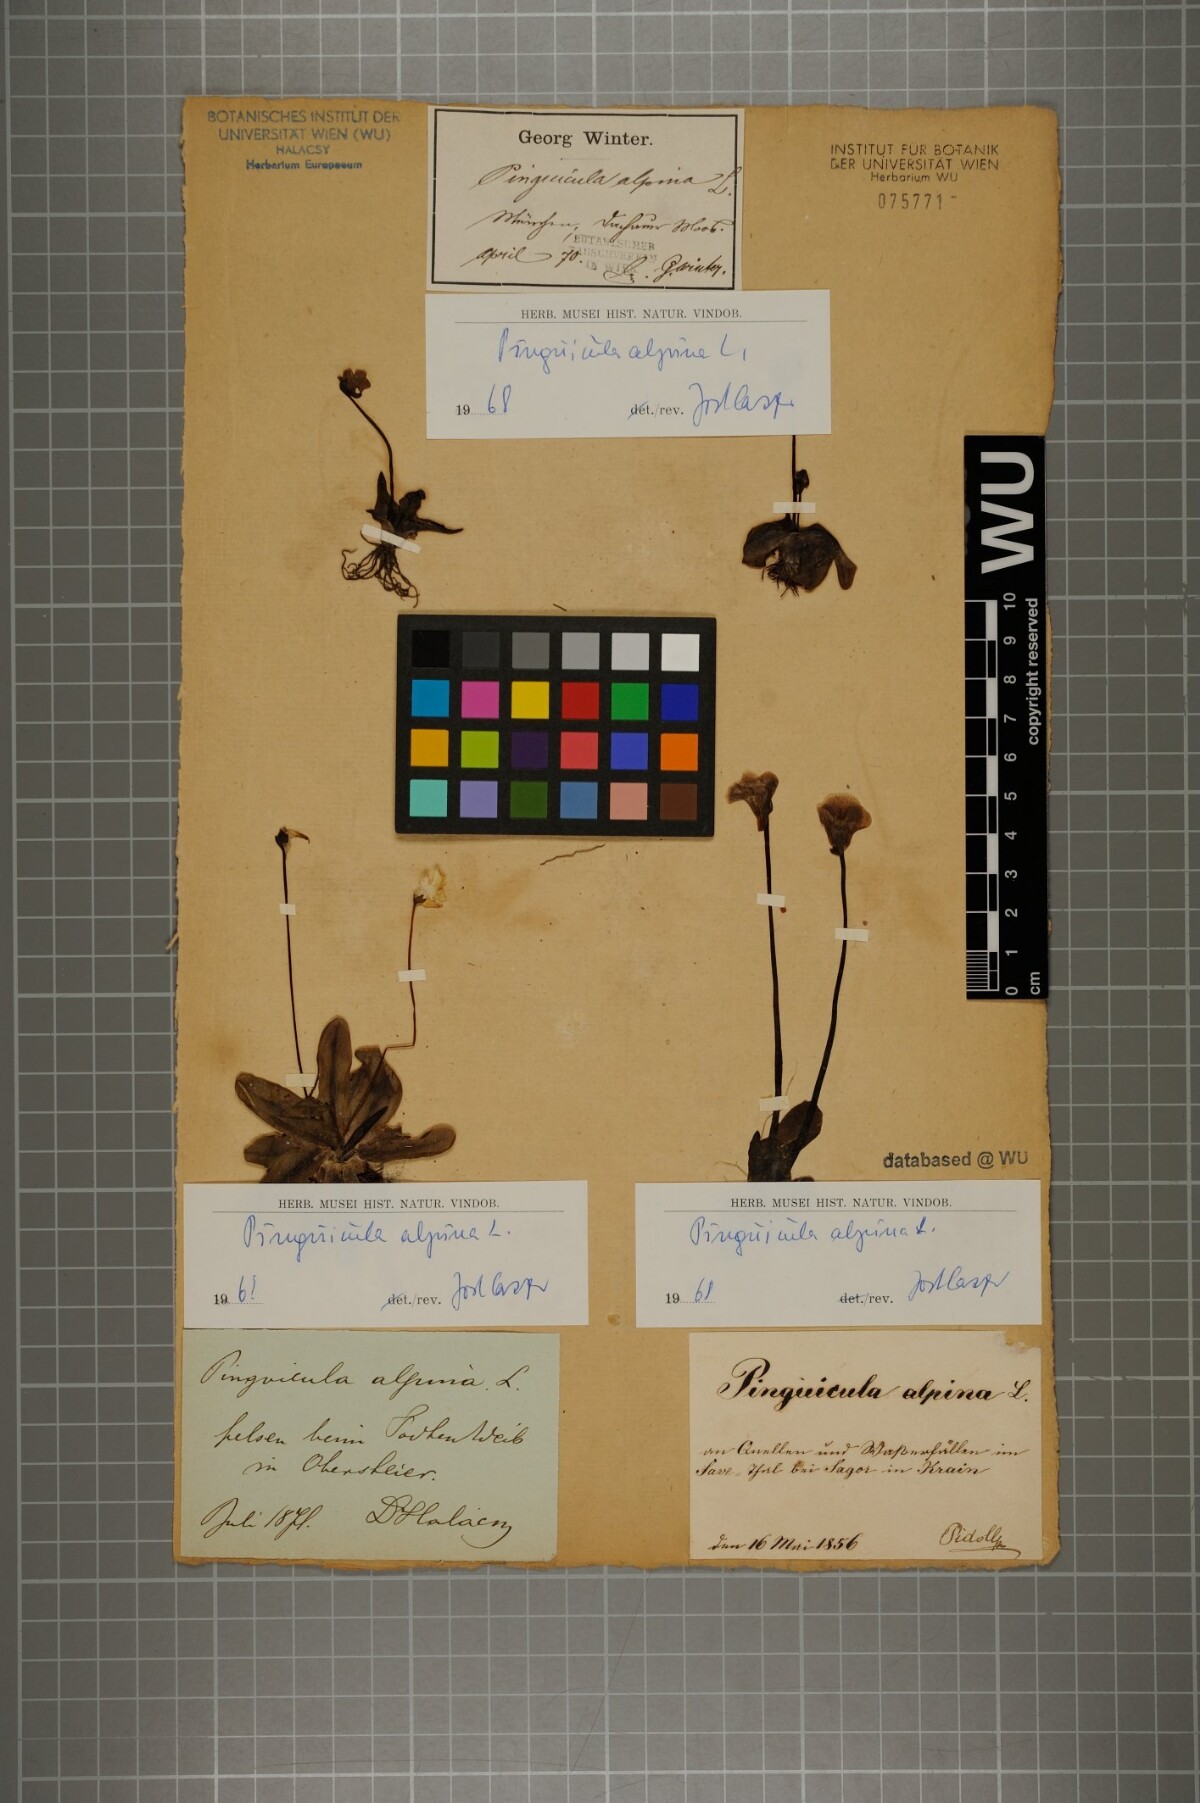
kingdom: Plantae
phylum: Tracheophyta
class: Magnoliopsida
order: Lamiales
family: Lentibulariaceae
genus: Pinguicula
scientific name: Pinguicula alpina
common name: Alpine butterwort
